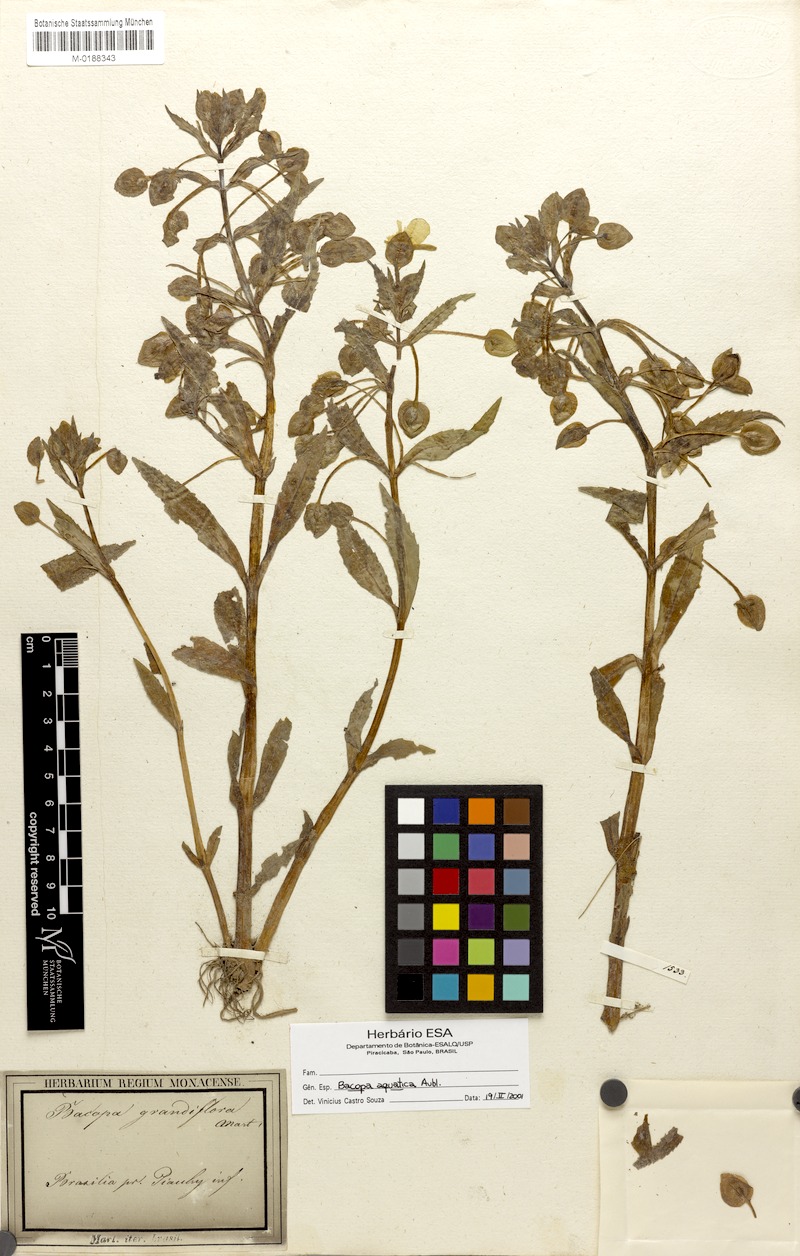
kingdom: Plantae
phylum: Tracheophyta
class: Magnoliopsida
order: Lamiales
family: Plantaginaceae
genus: Bacopa
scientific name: Bacopa aquatica
